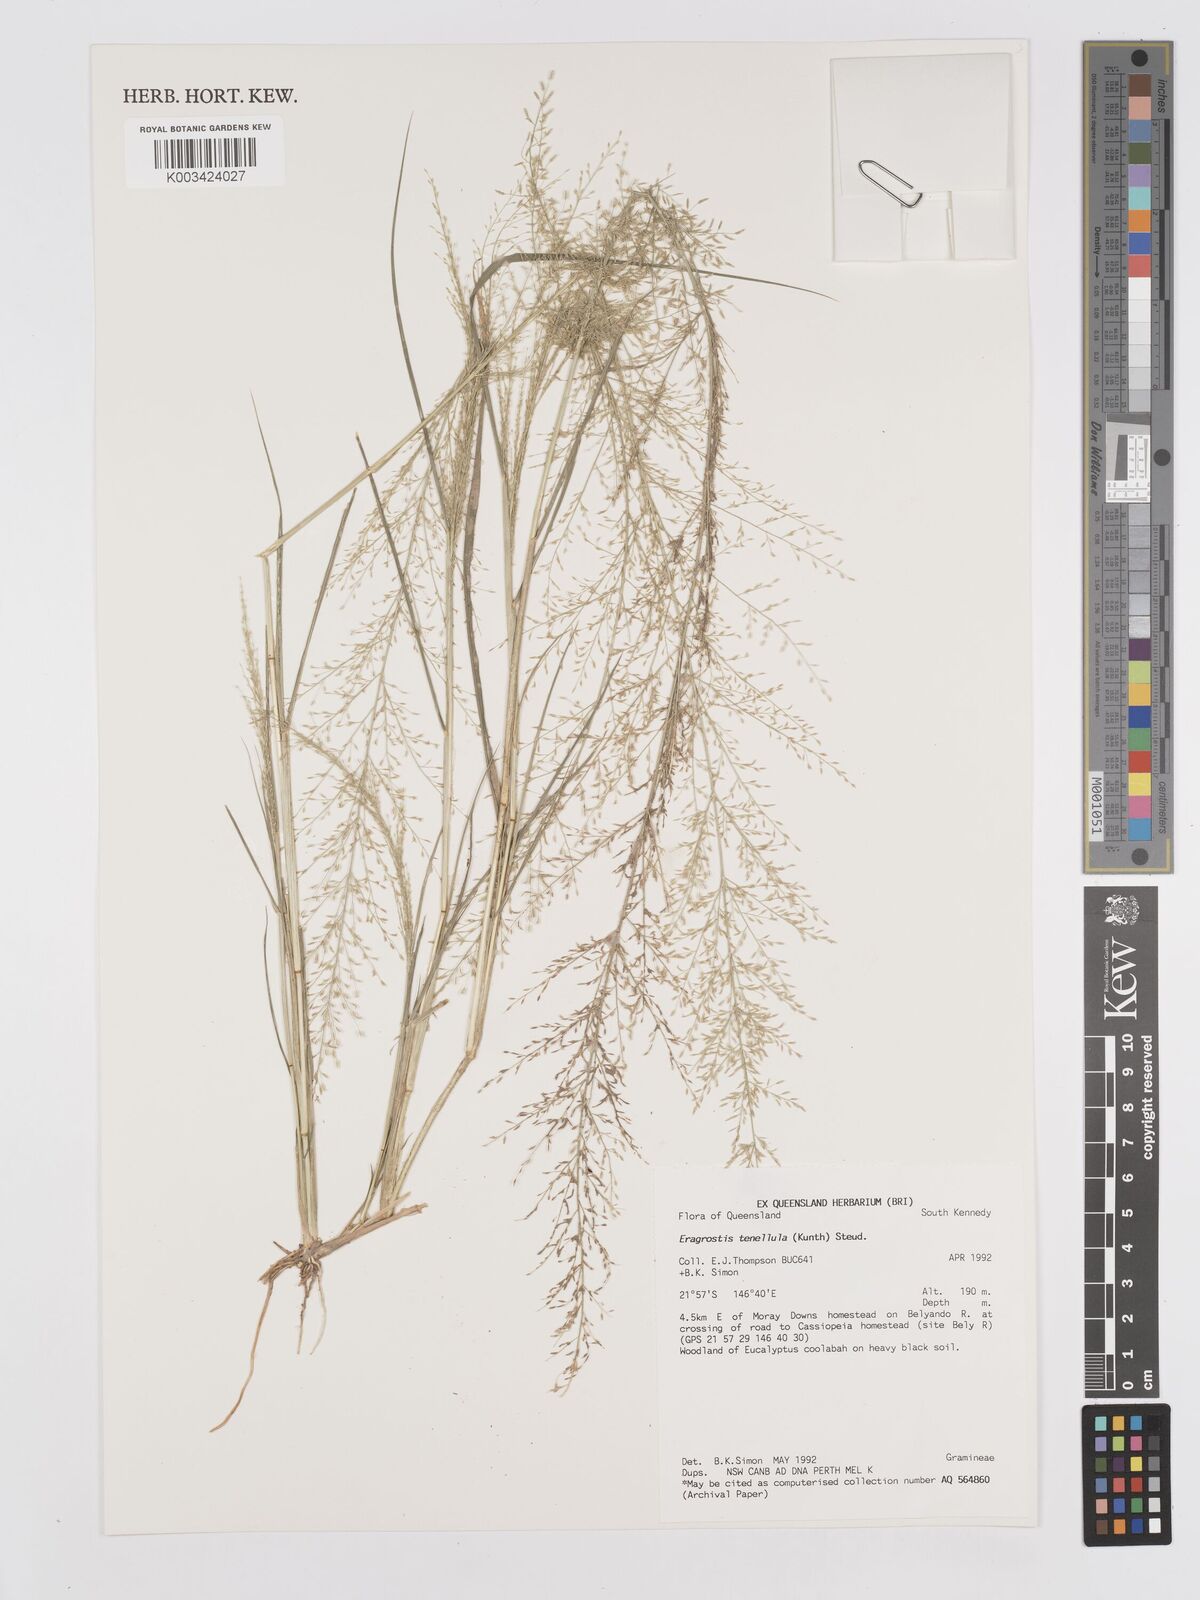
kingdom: Plantae
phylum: Tracheophyta
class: Liliopsida
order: Poales
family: Poaceae
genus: Eragrostis
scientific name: Eragrostis tenellula
